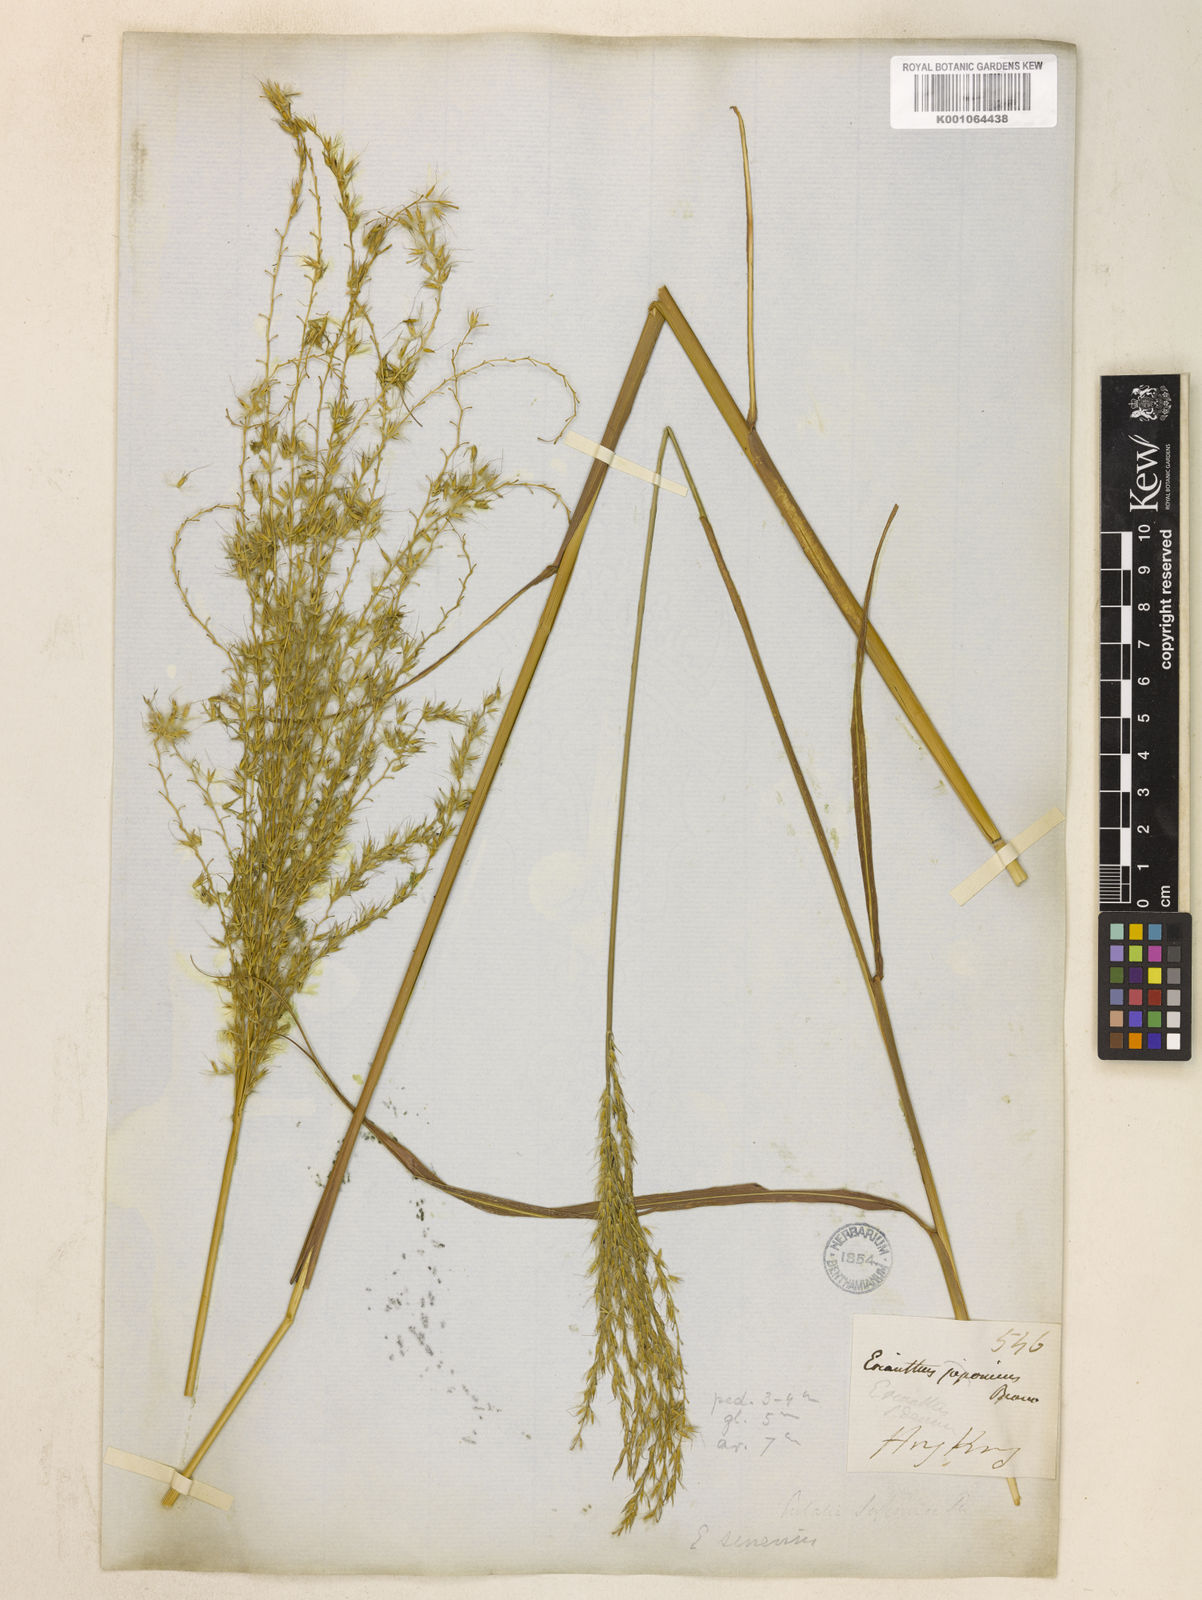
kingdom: Plantae
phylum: Tracheophyta
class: Liliopsida
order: Poales
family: Poaceae
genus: Miscanthus
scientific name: Miscanthus sinensis
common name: Chinese silvergrass
